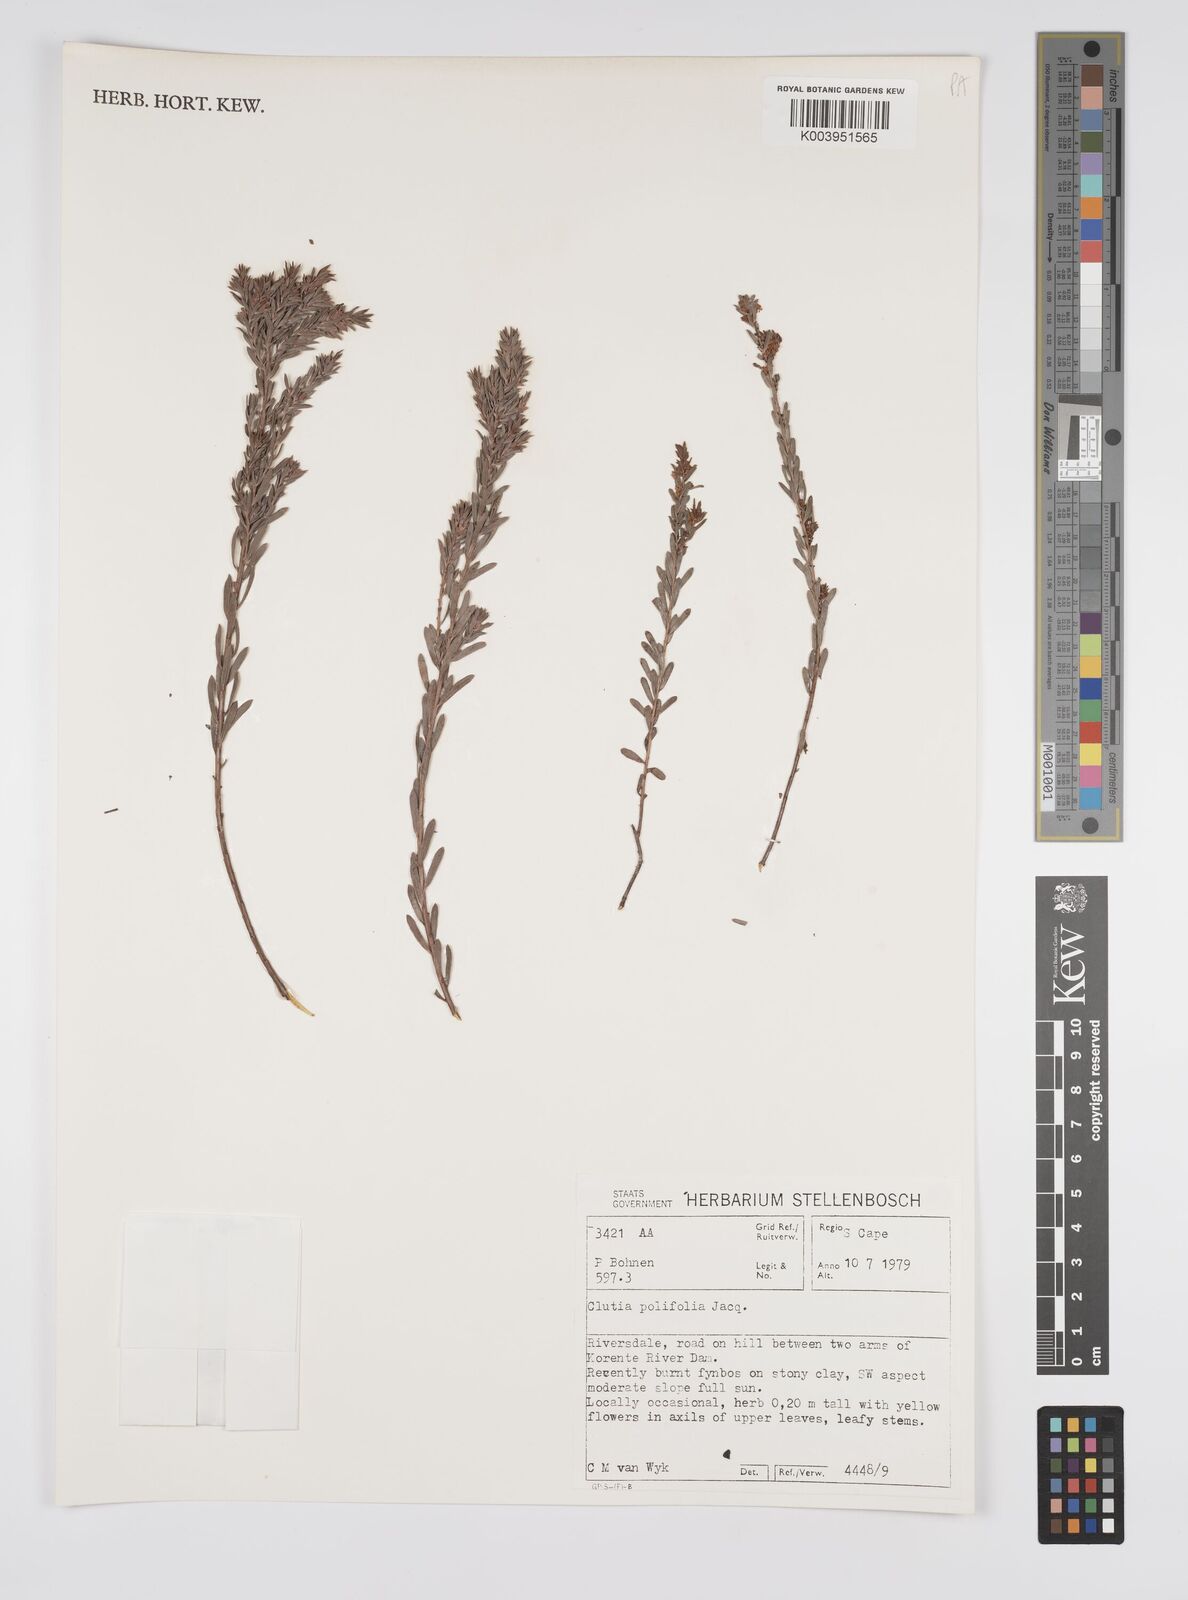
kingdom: Plantae
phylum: Tracheophyta
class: Magnoliopsida
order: Malpighiales
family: Peraceae
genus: Clutia
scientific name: Clutia
